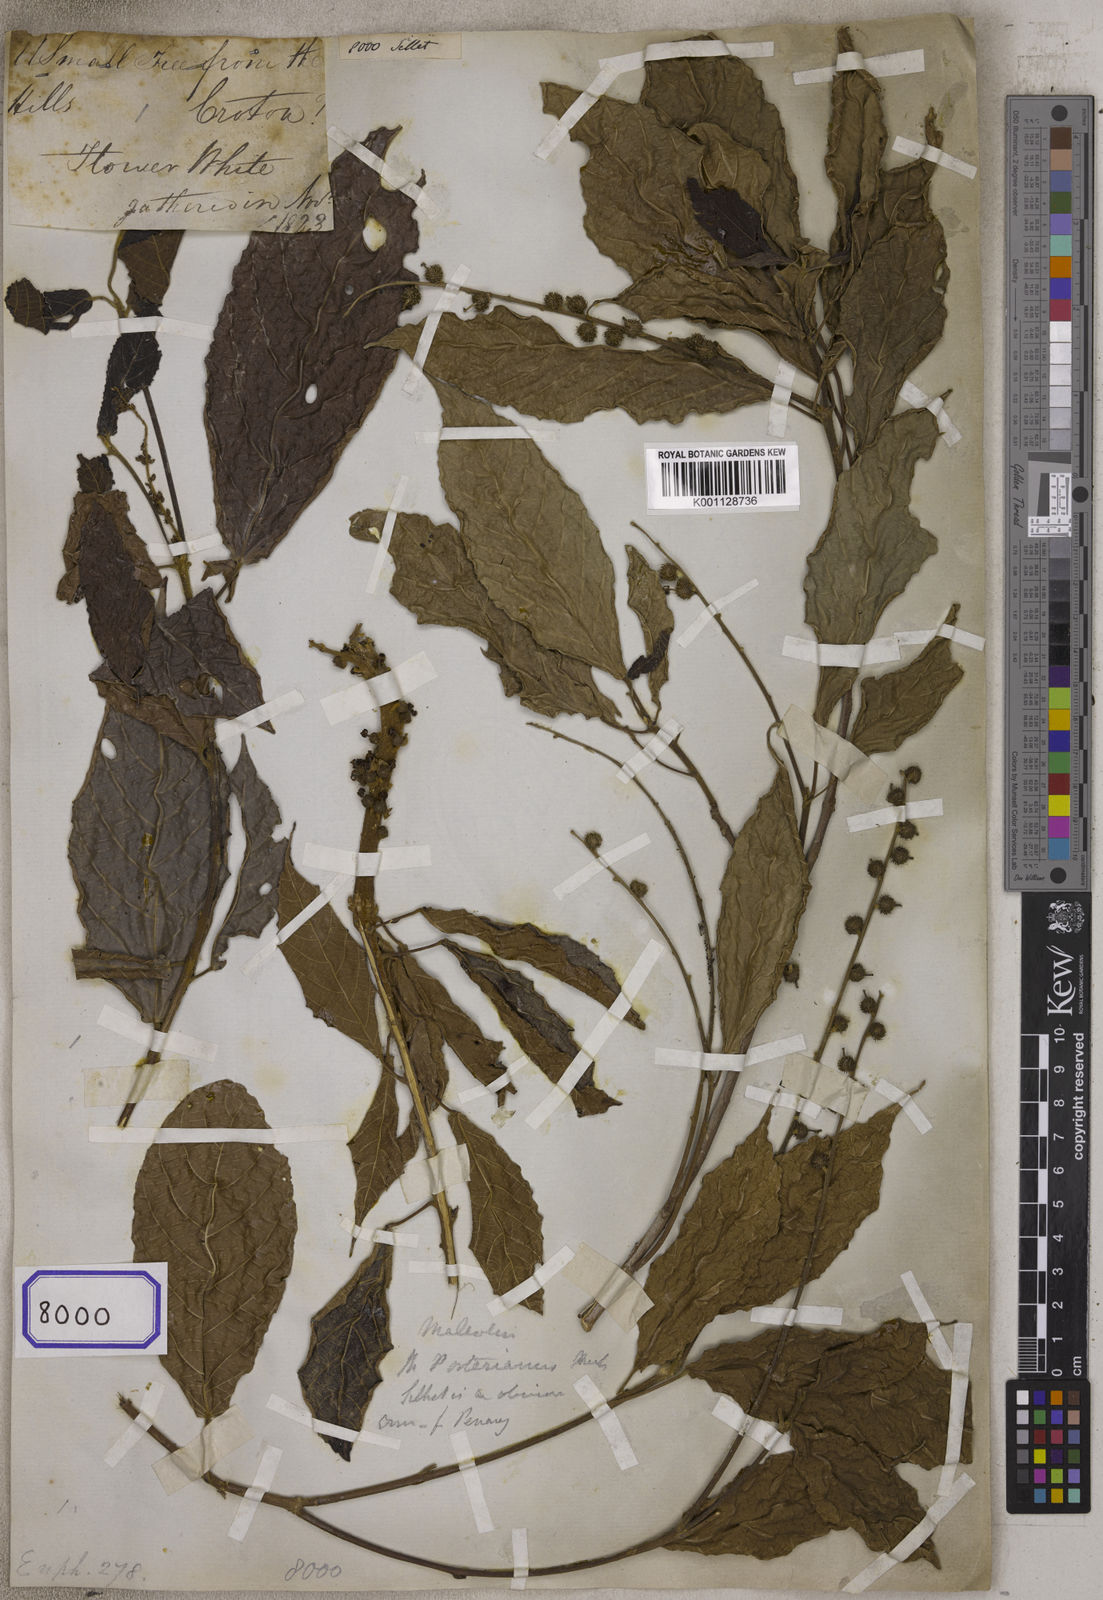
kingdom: Plantae
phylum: Tracheophyta
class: Magnoliopsida
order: Malpighiales
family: Euphorbiaceae
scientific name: Euphorbiaceae
